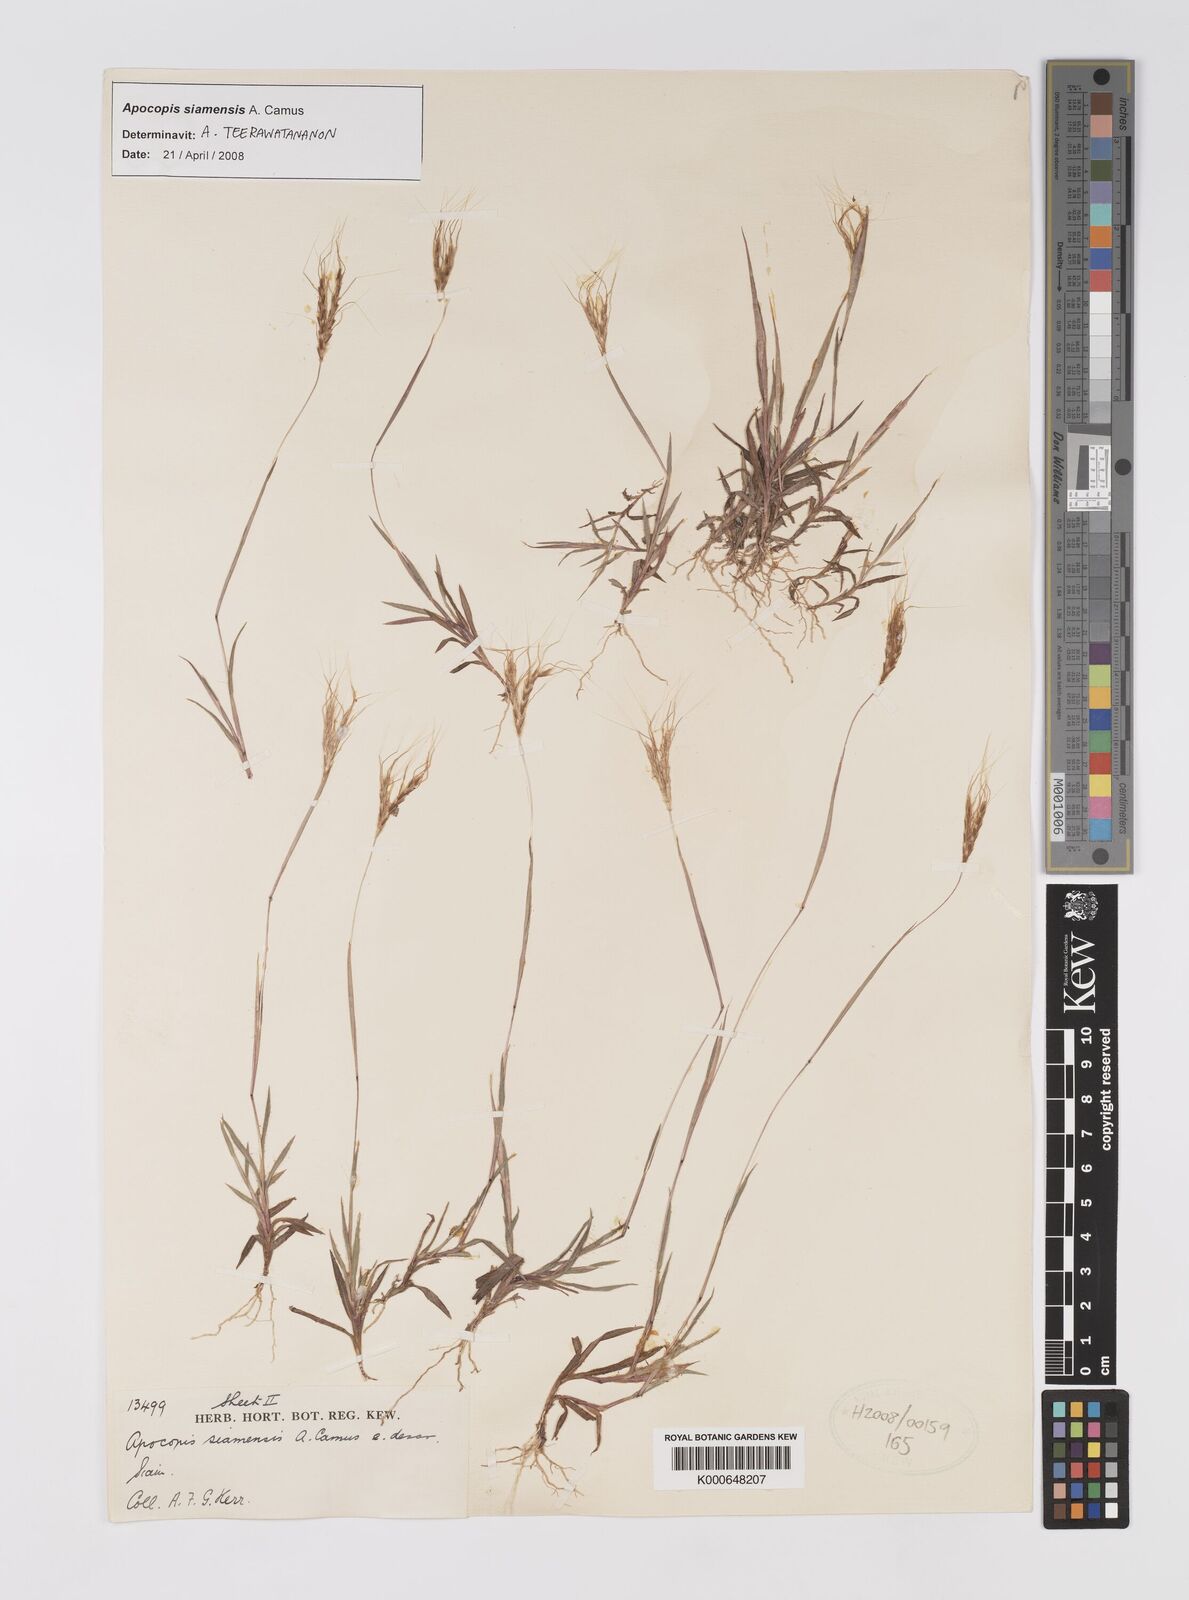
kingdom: Plantae
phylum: Tracheophyta
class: Liliopsida
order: Poales
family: Poaceae
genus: Apocopis
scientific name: Apocopis siamensis
